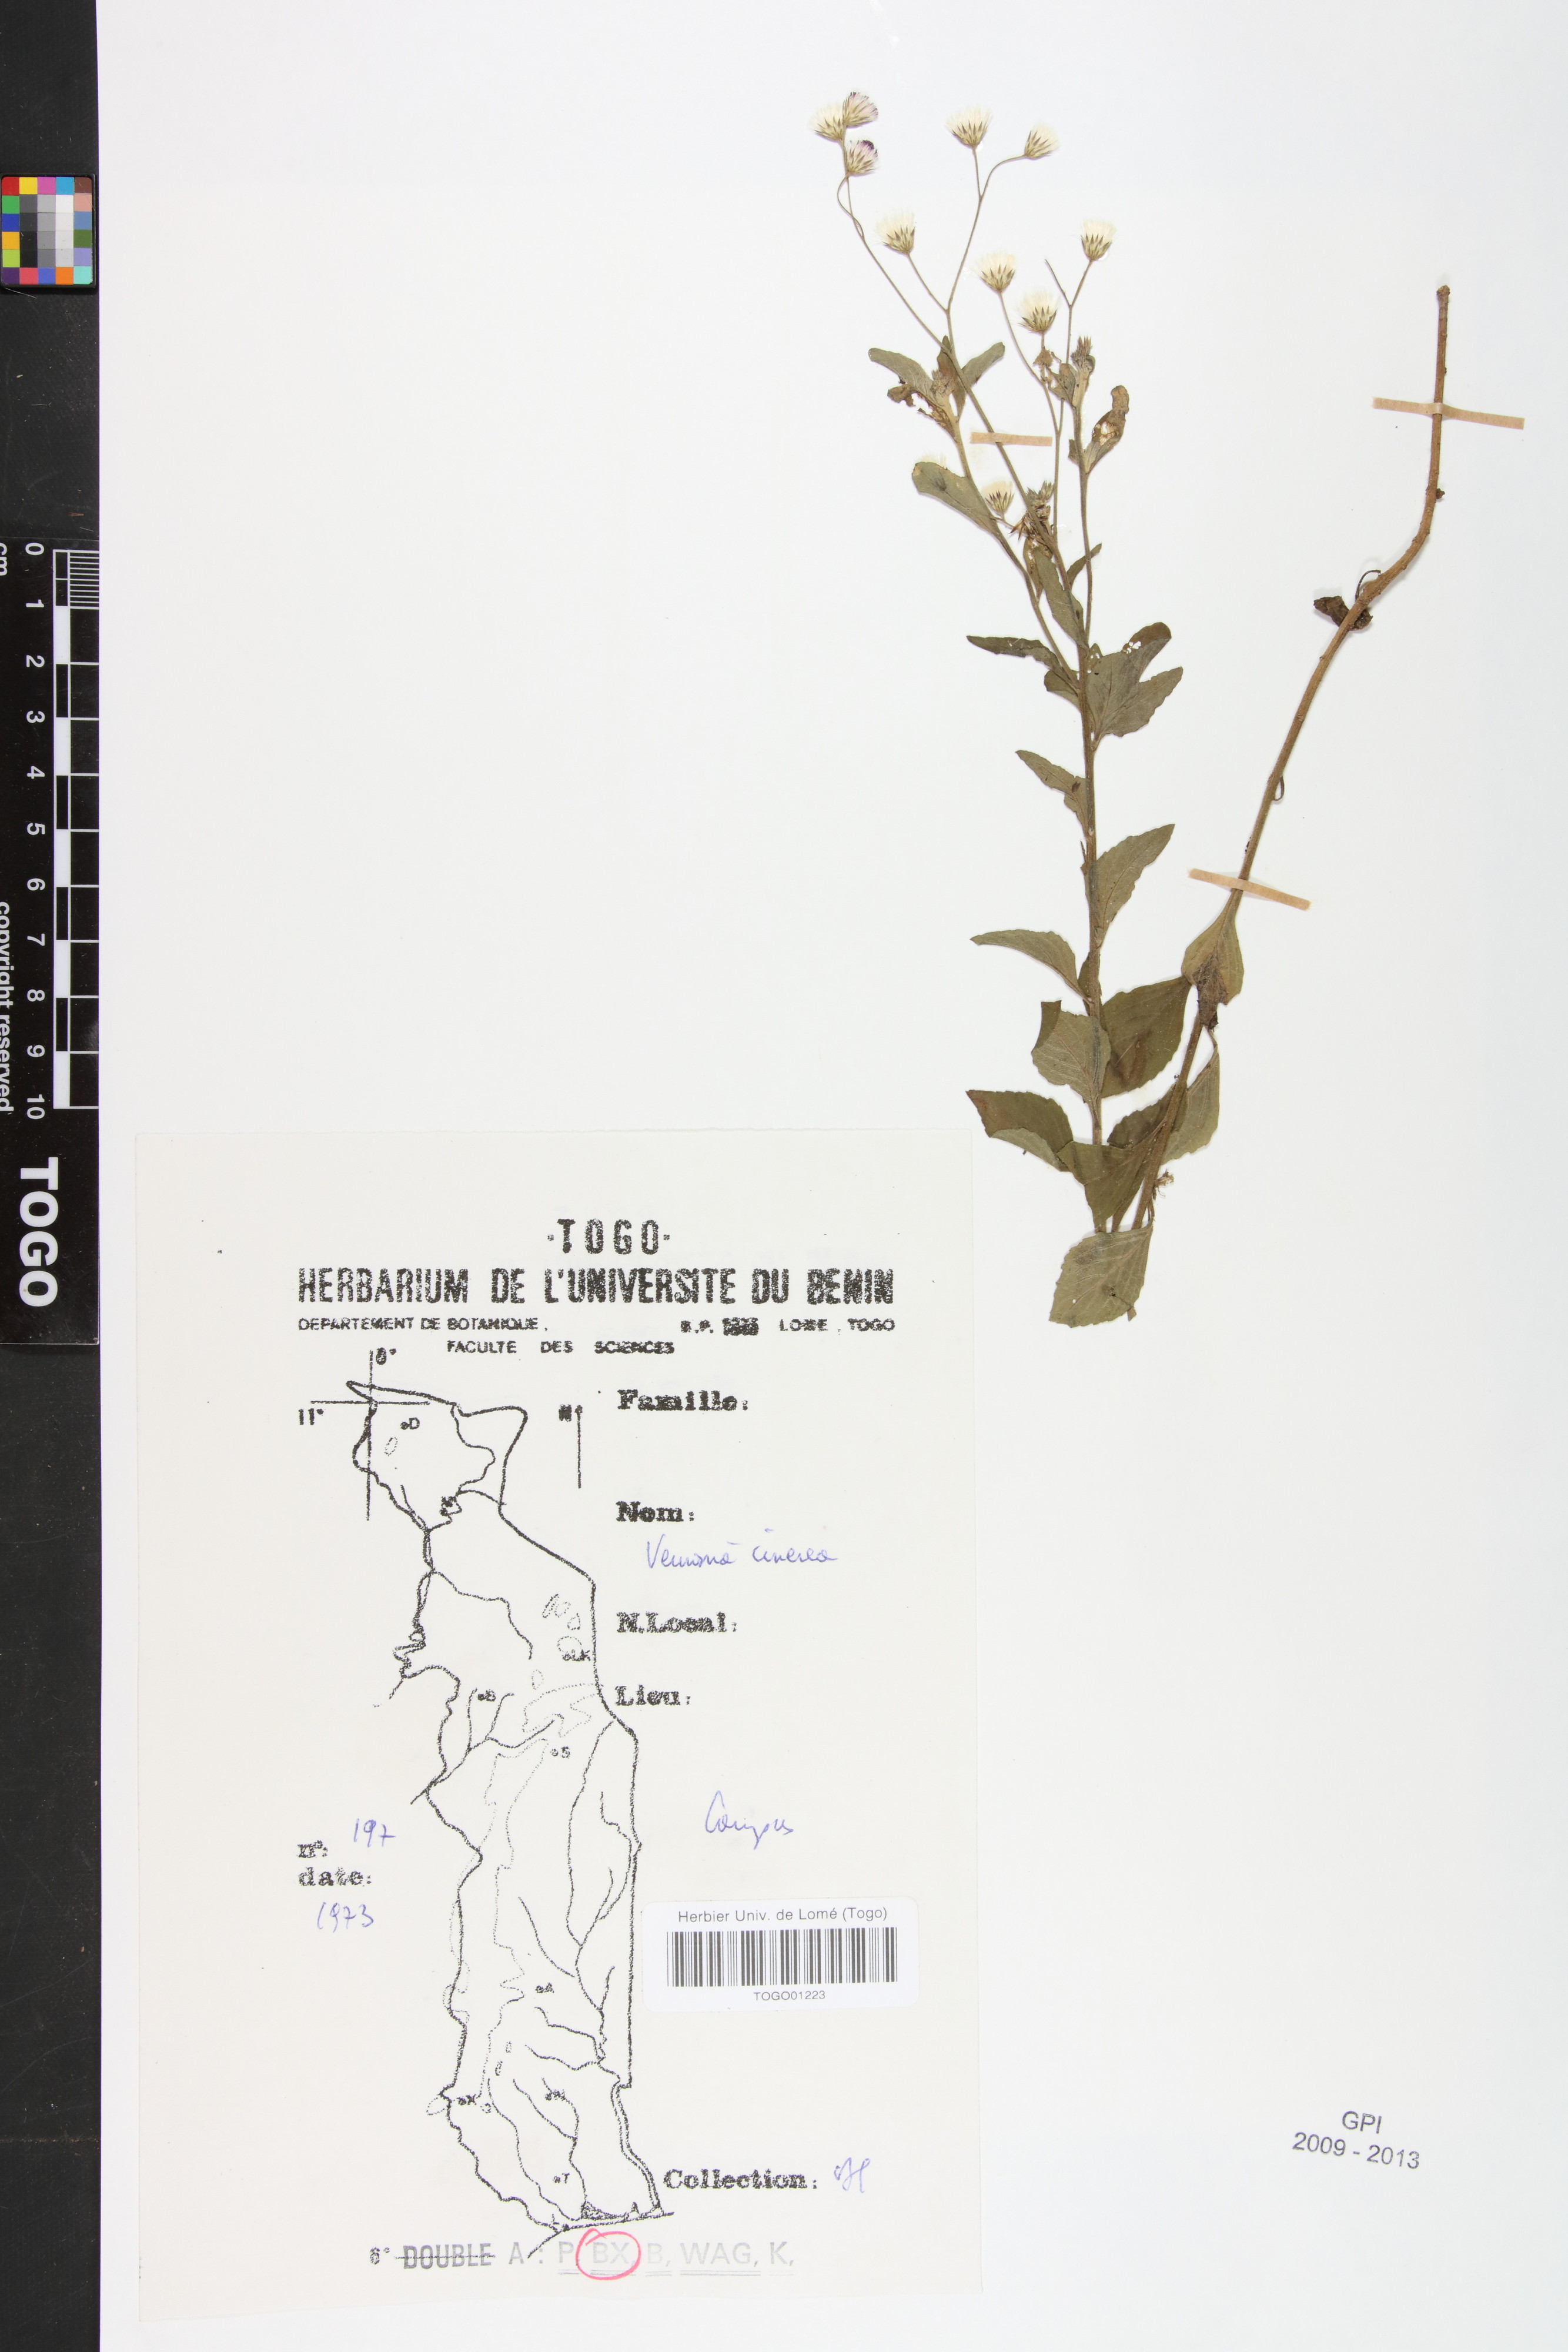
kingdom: Plantae
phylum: Tracheophyta
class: Magnoliopsida
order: Asterales
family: Asteraceae
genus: Cyanthillium
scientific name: Cyanthillium cinereum
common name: Little ironweed
